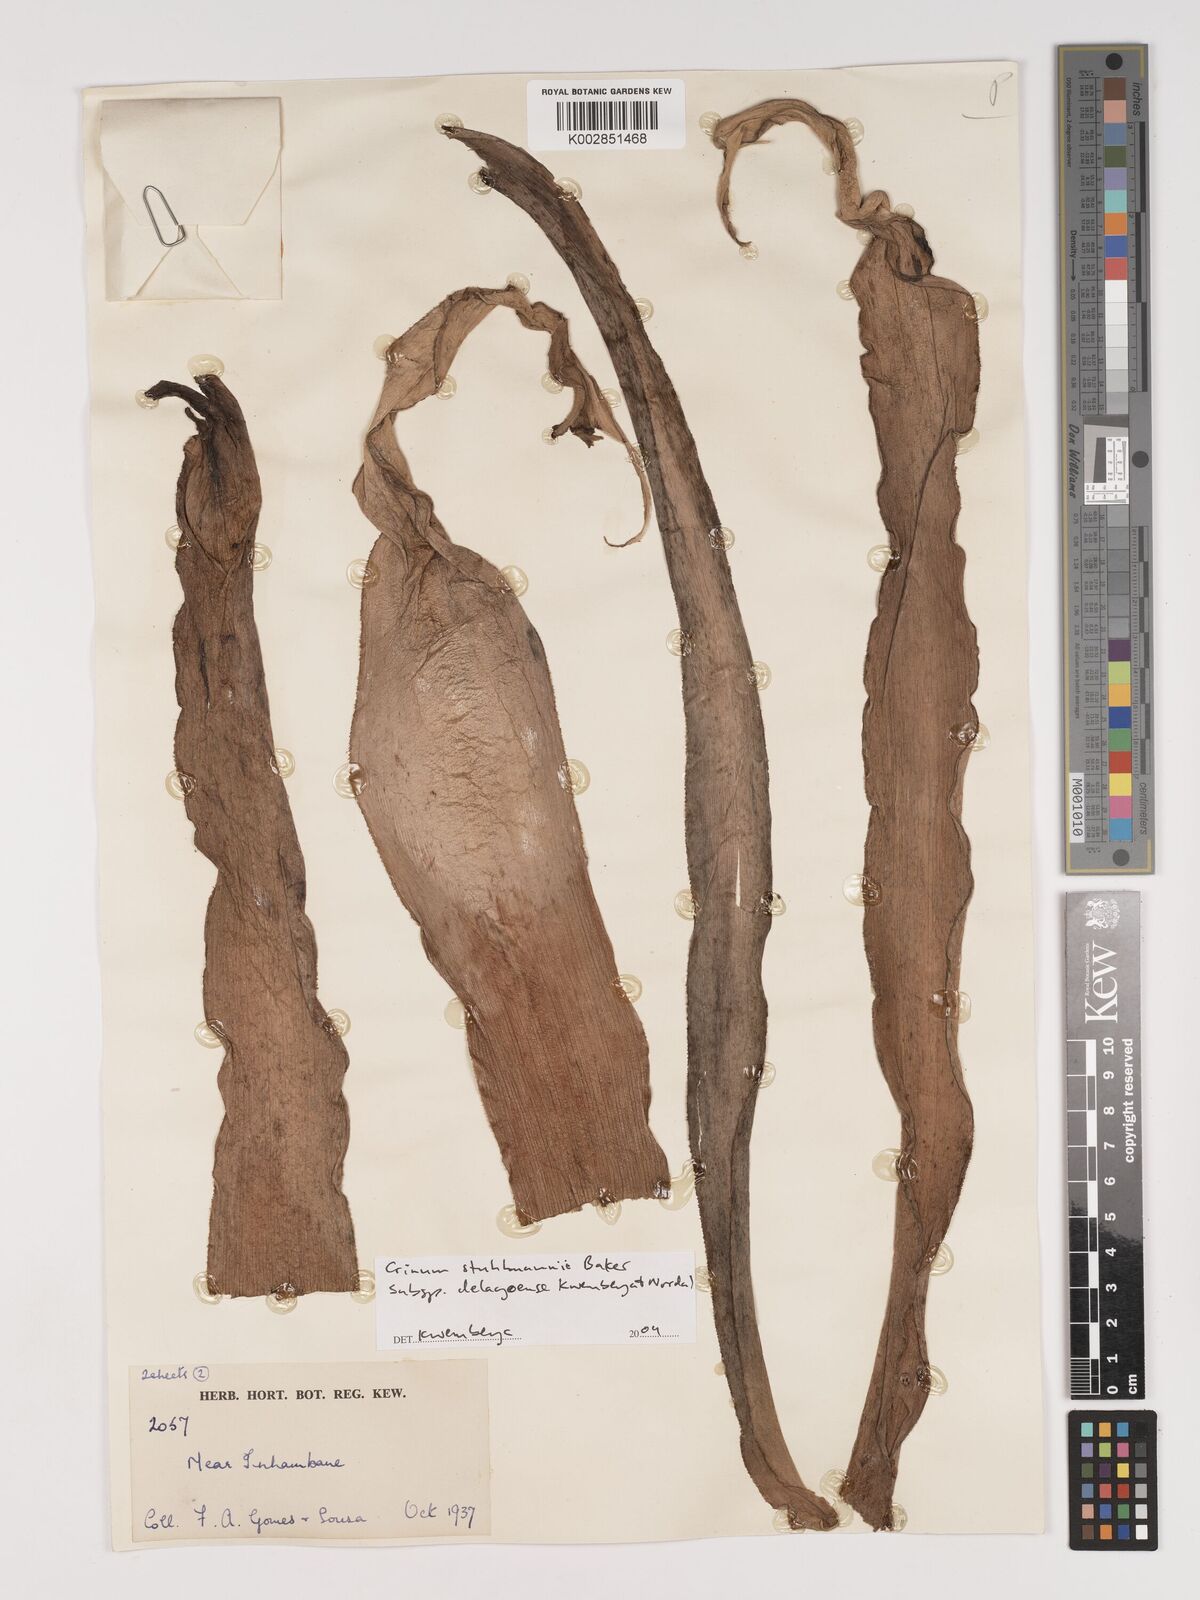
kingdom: Plantae
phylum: Tracheophyta
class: Liliopsida
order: Asparagales
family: Amaryllidaceae
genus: Crinum
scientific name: Crinum stuhlmannii
